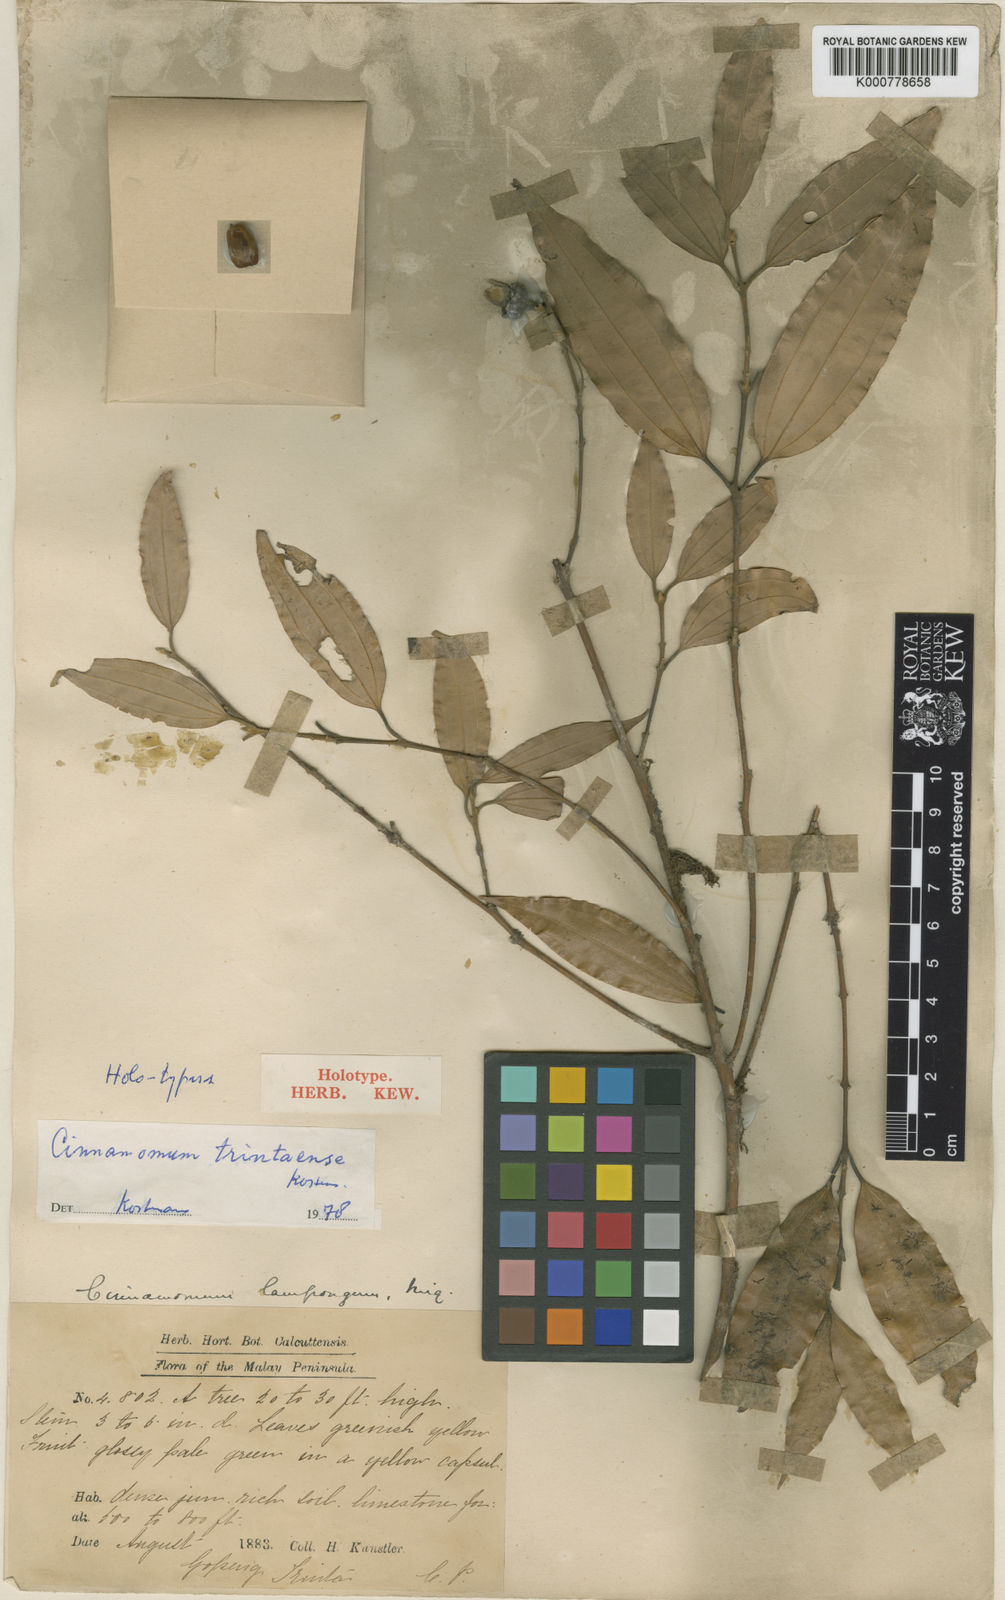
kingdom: Plantae
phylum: Tracheophyta
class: Magnoliopsida
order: Laurales
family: Lauraceae
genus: Cinnamomum
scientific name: Cinnamomum trintaense
